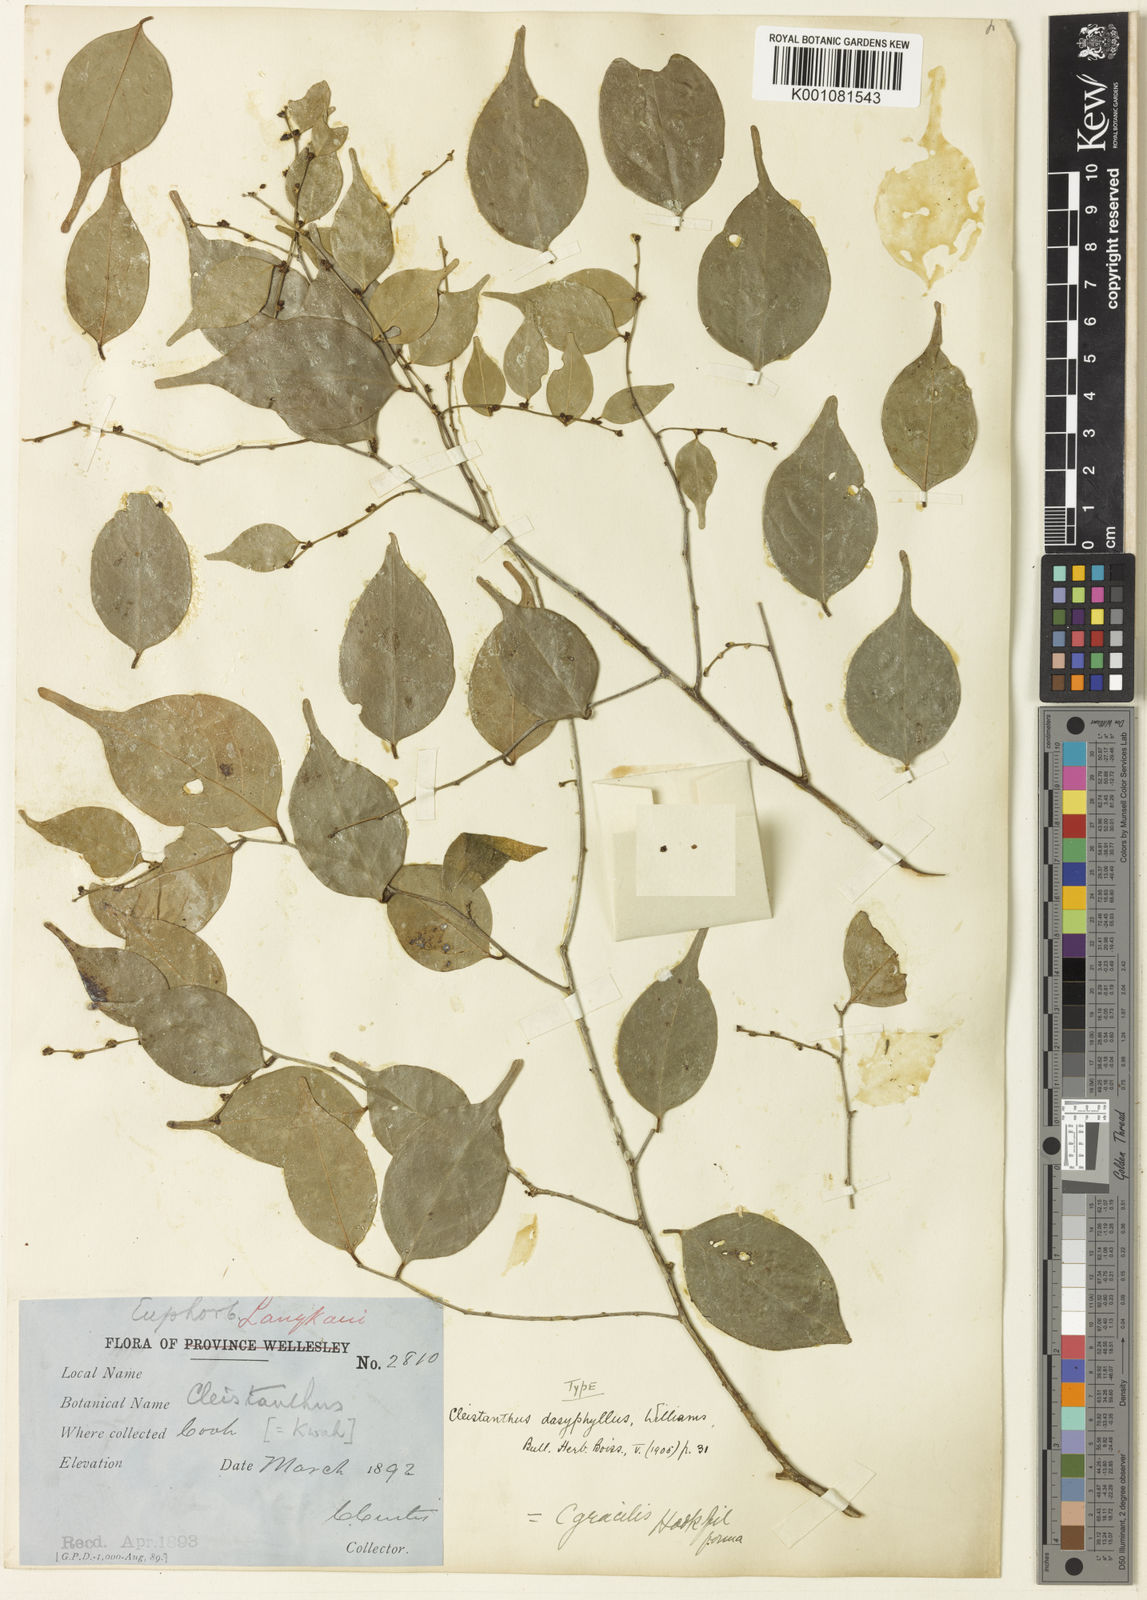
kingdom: Plantae
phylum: Tracheophyta
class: Magnoliopsida
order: Malpighiales
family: Phyllanthaceae
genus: Cleistanthus
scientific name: Cleistanthus gracilis
